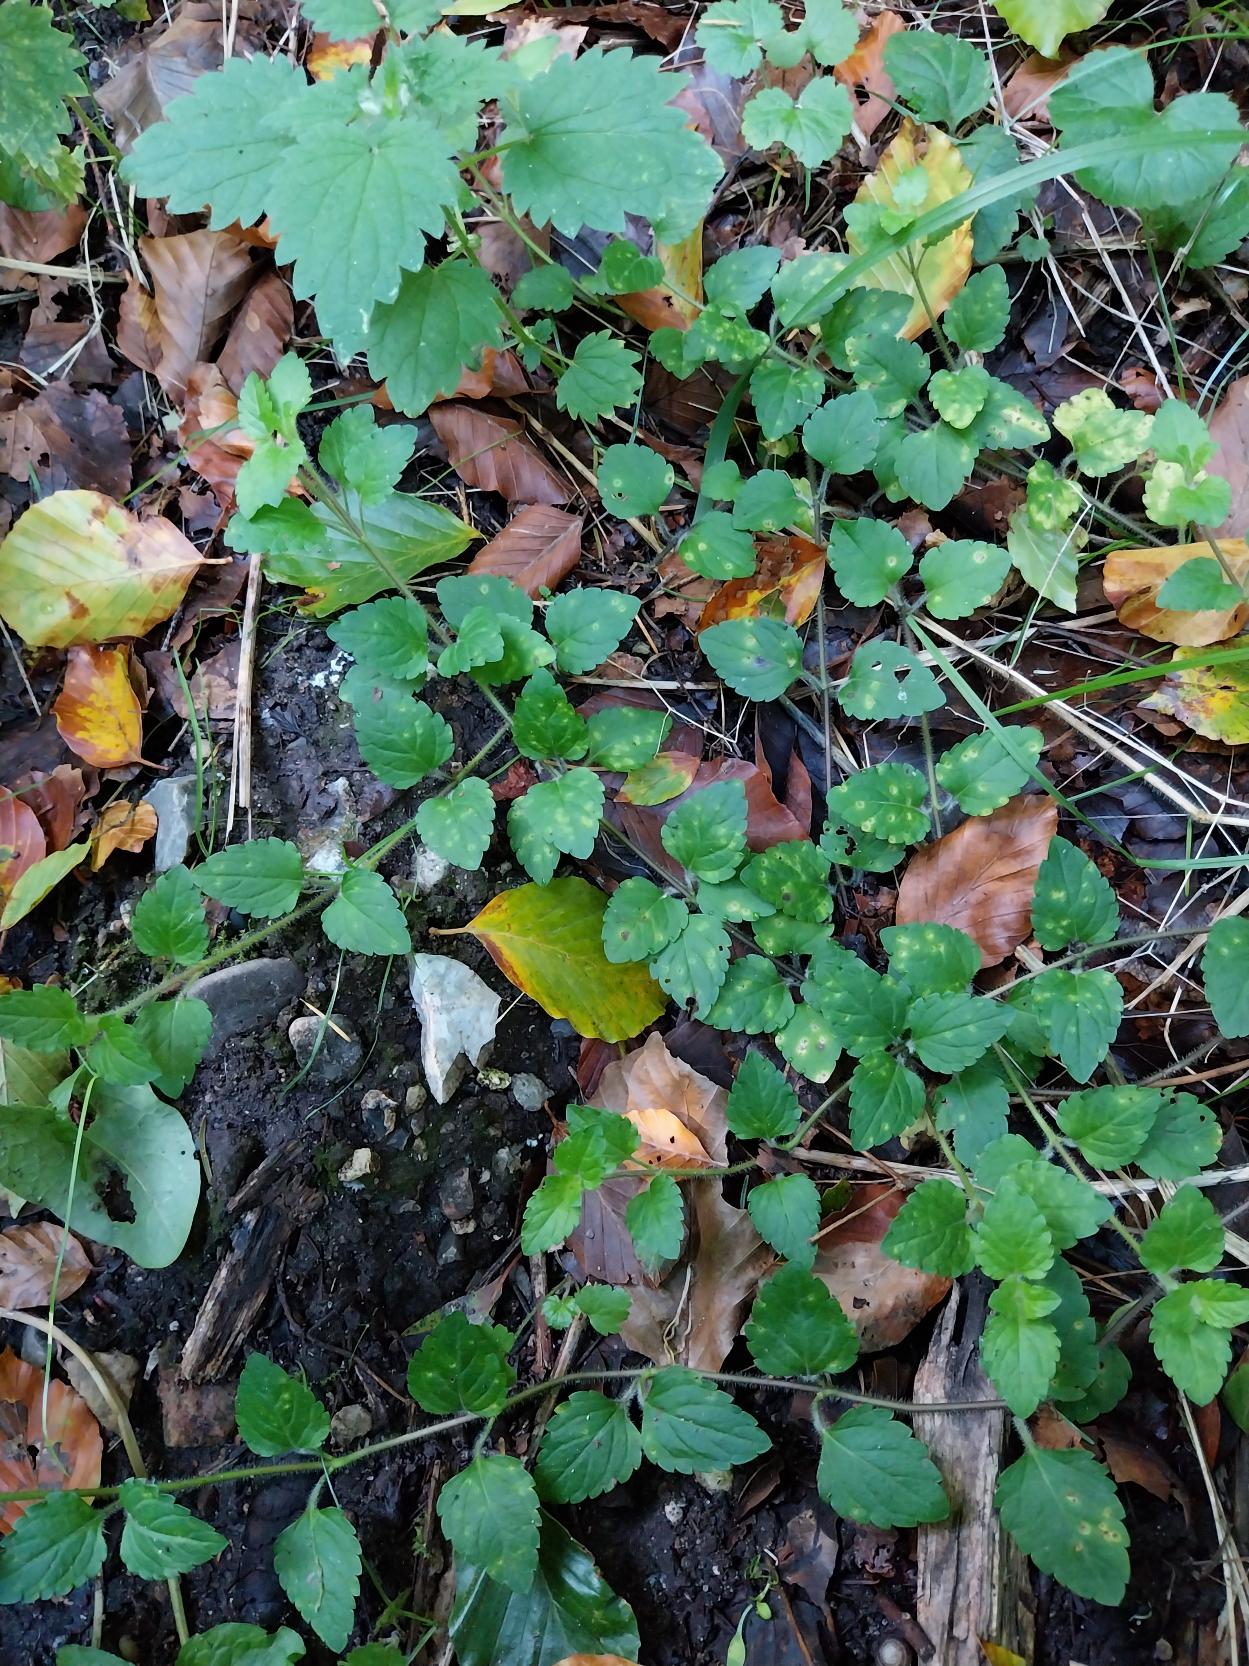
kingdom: Plantae
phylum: Tracheophyta
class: Magnoliopsida
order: Lamiales
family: Plantaginaceae
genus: Veronica
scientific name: Veronica montana
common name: Bjerg-ærenpris
